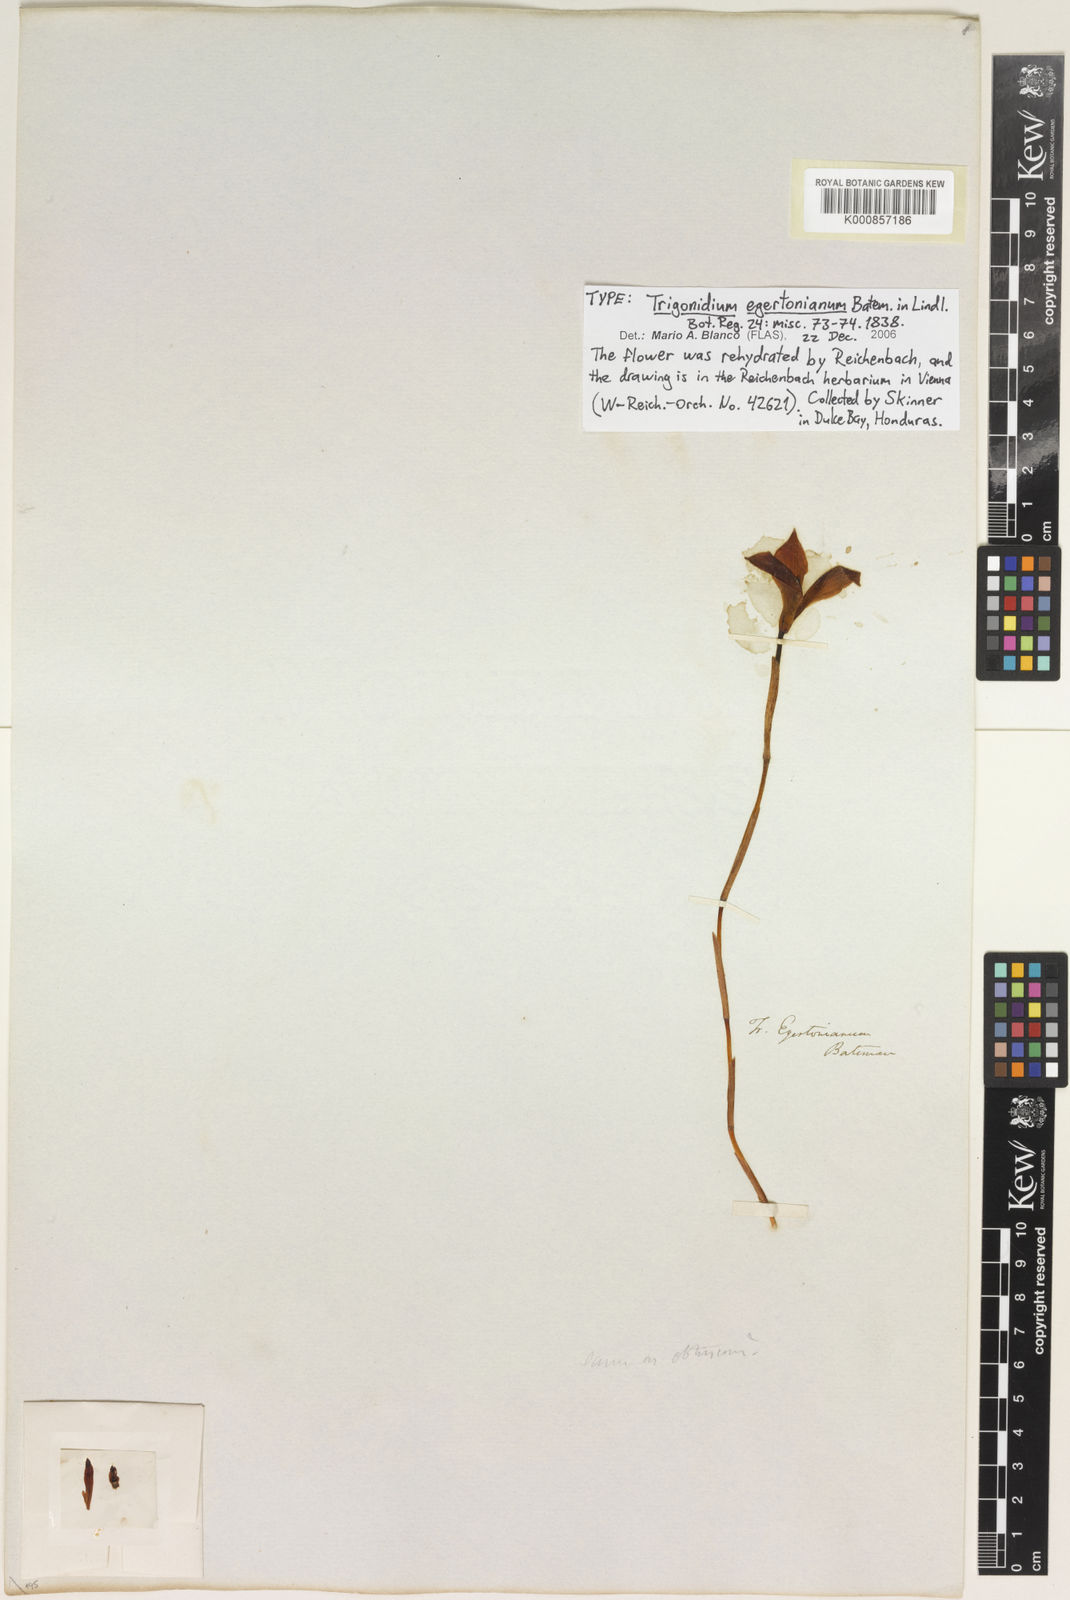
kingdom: Plantae
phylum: Tracheophyta
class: Liliopsida
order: Asparagales
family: Orchidaceae
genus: Maxillaria
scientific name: Maxillaria egertoniana
